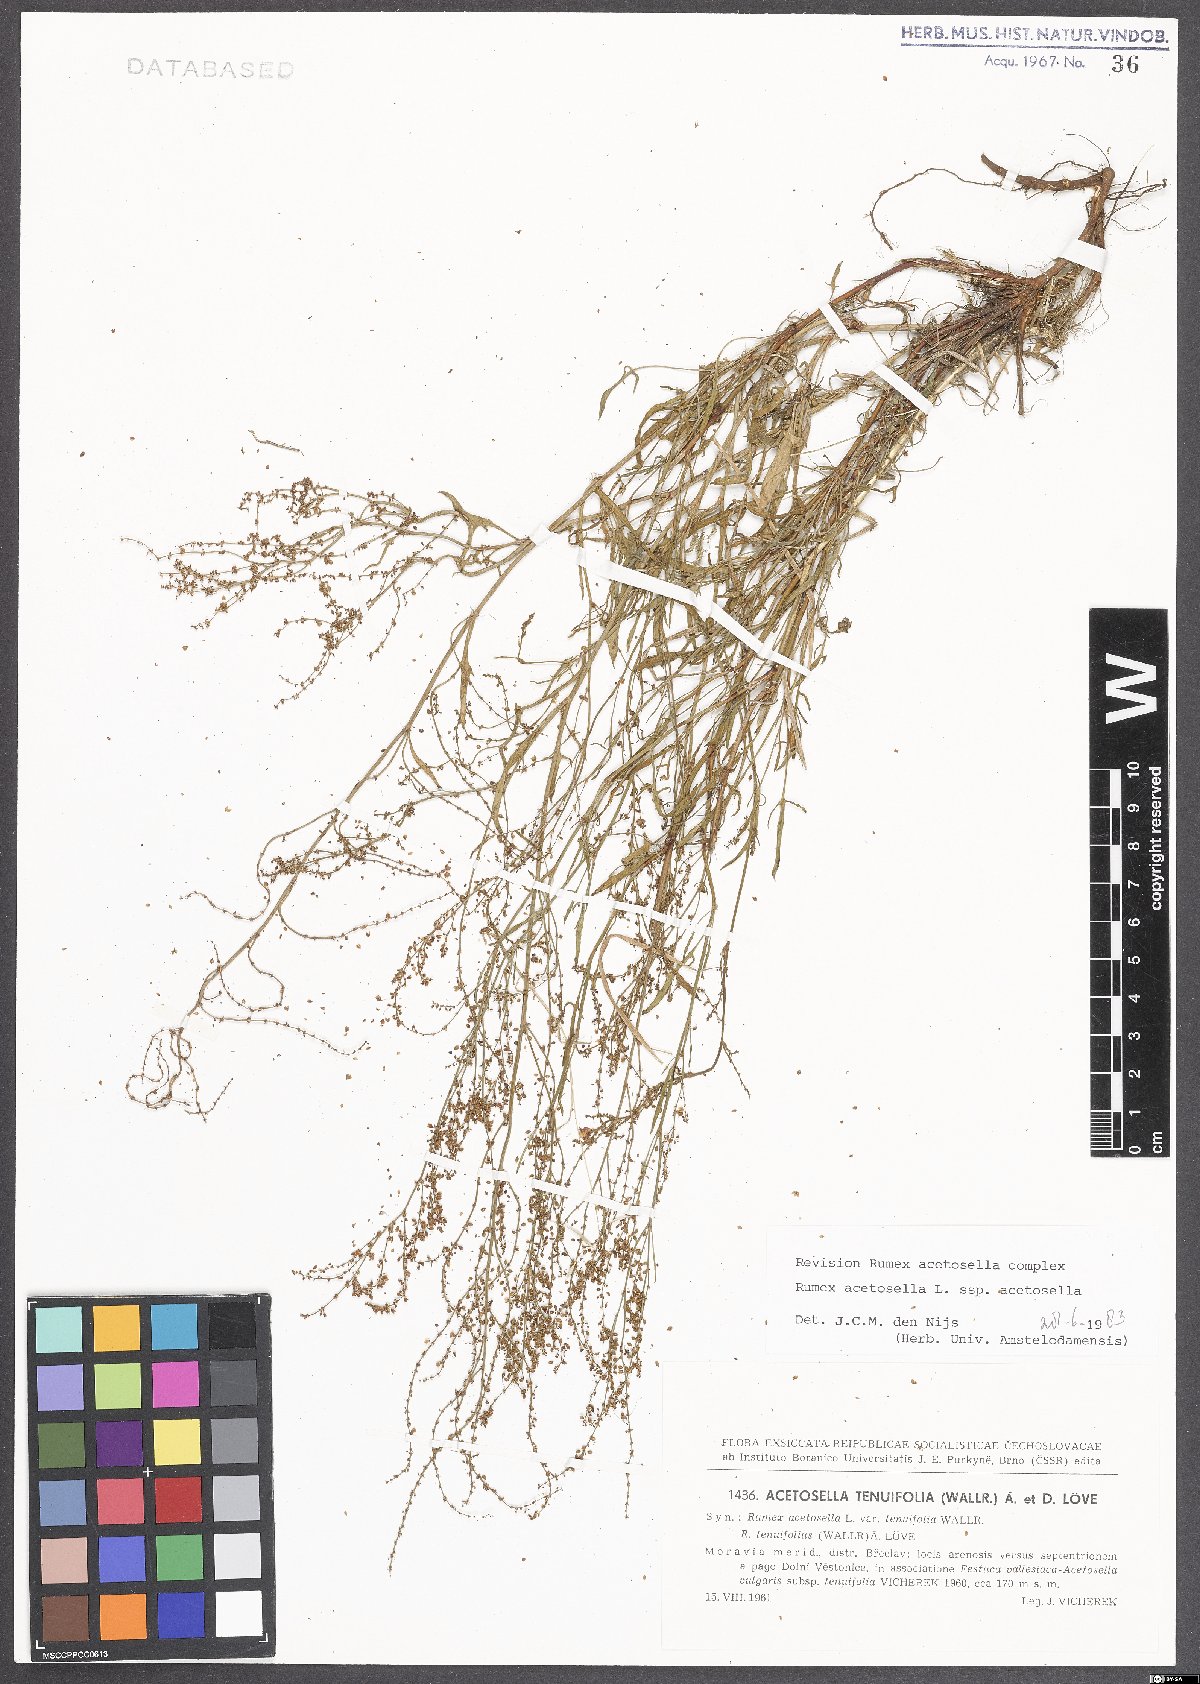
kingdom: Plantae
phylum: Tracheophyta
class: Magnoliopsida
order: Caryophyllales
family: Polygonaceae
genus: Rumex
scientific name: Rumex acetosella
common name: Common sheep sorrel
